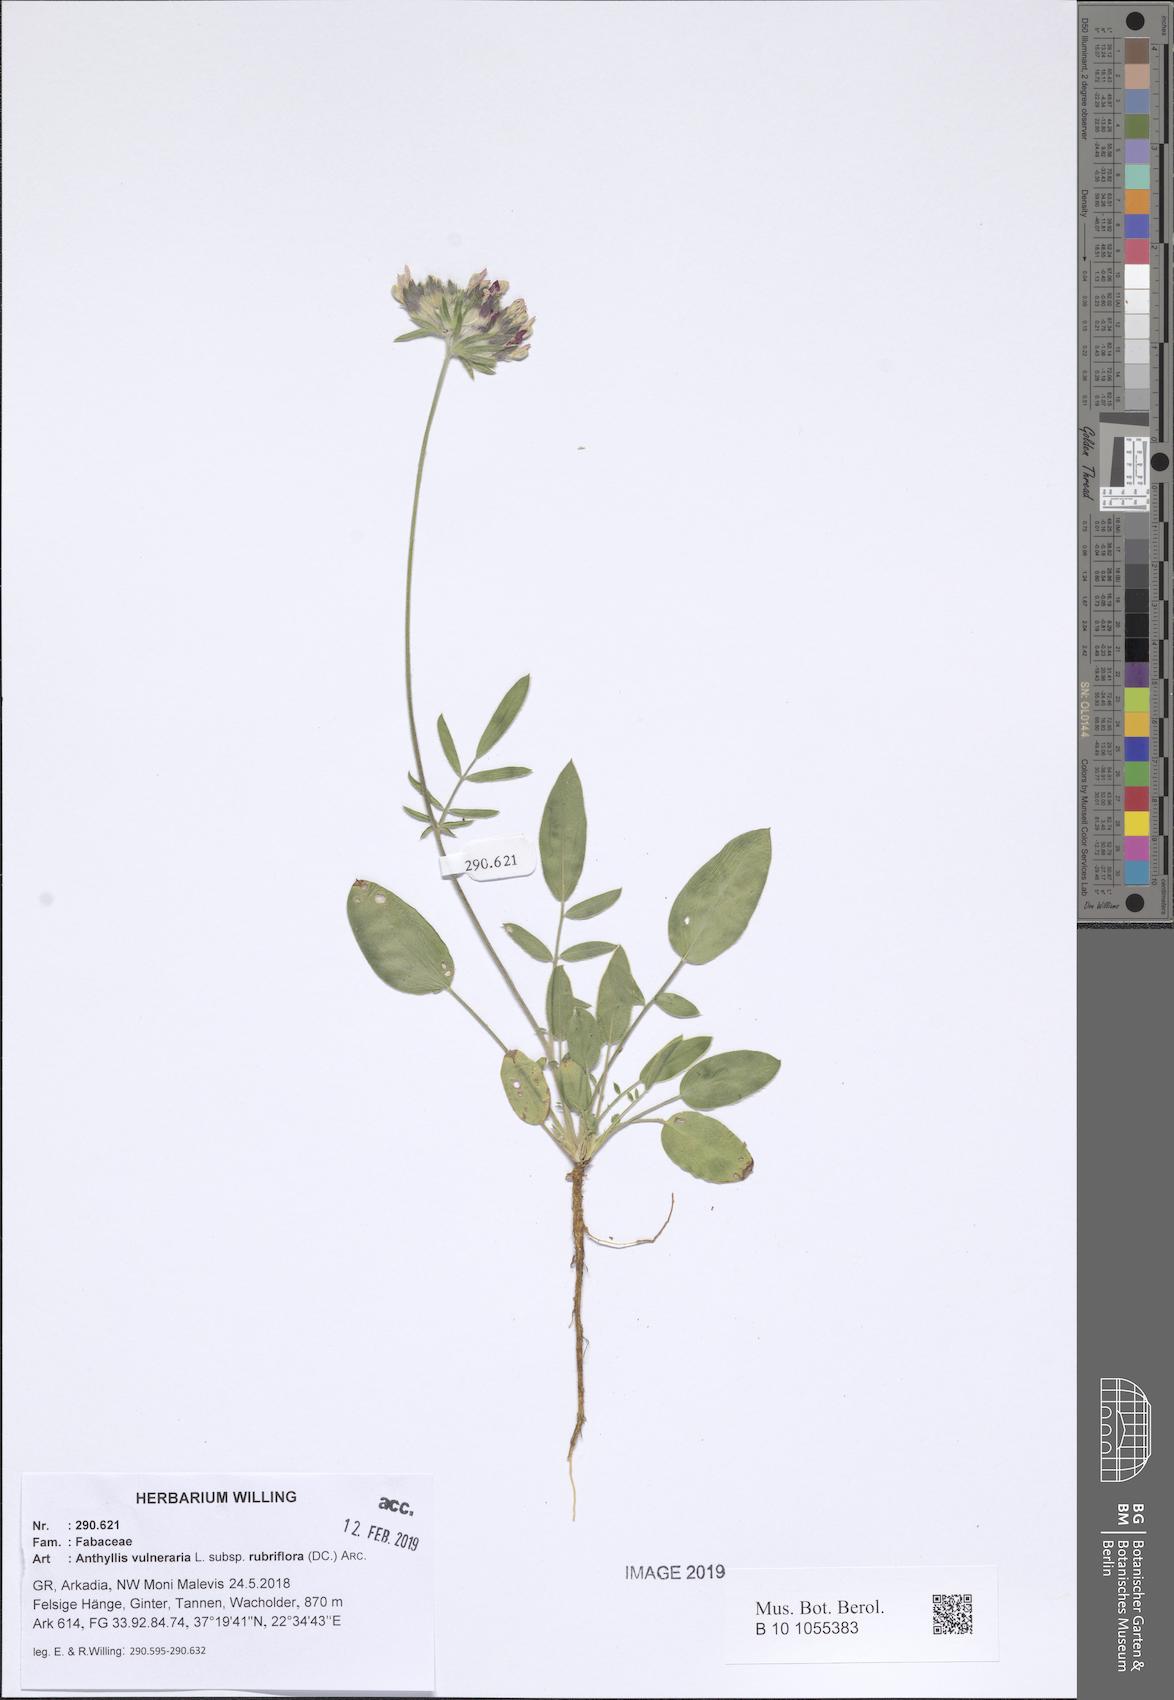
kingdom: Plantae
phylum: Tracheophyta
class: Magnoliopsida
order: Fabales
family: Fabaceae
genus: Anthyllis
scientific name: Anthyllis vulneraria
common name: Kidney vetch
